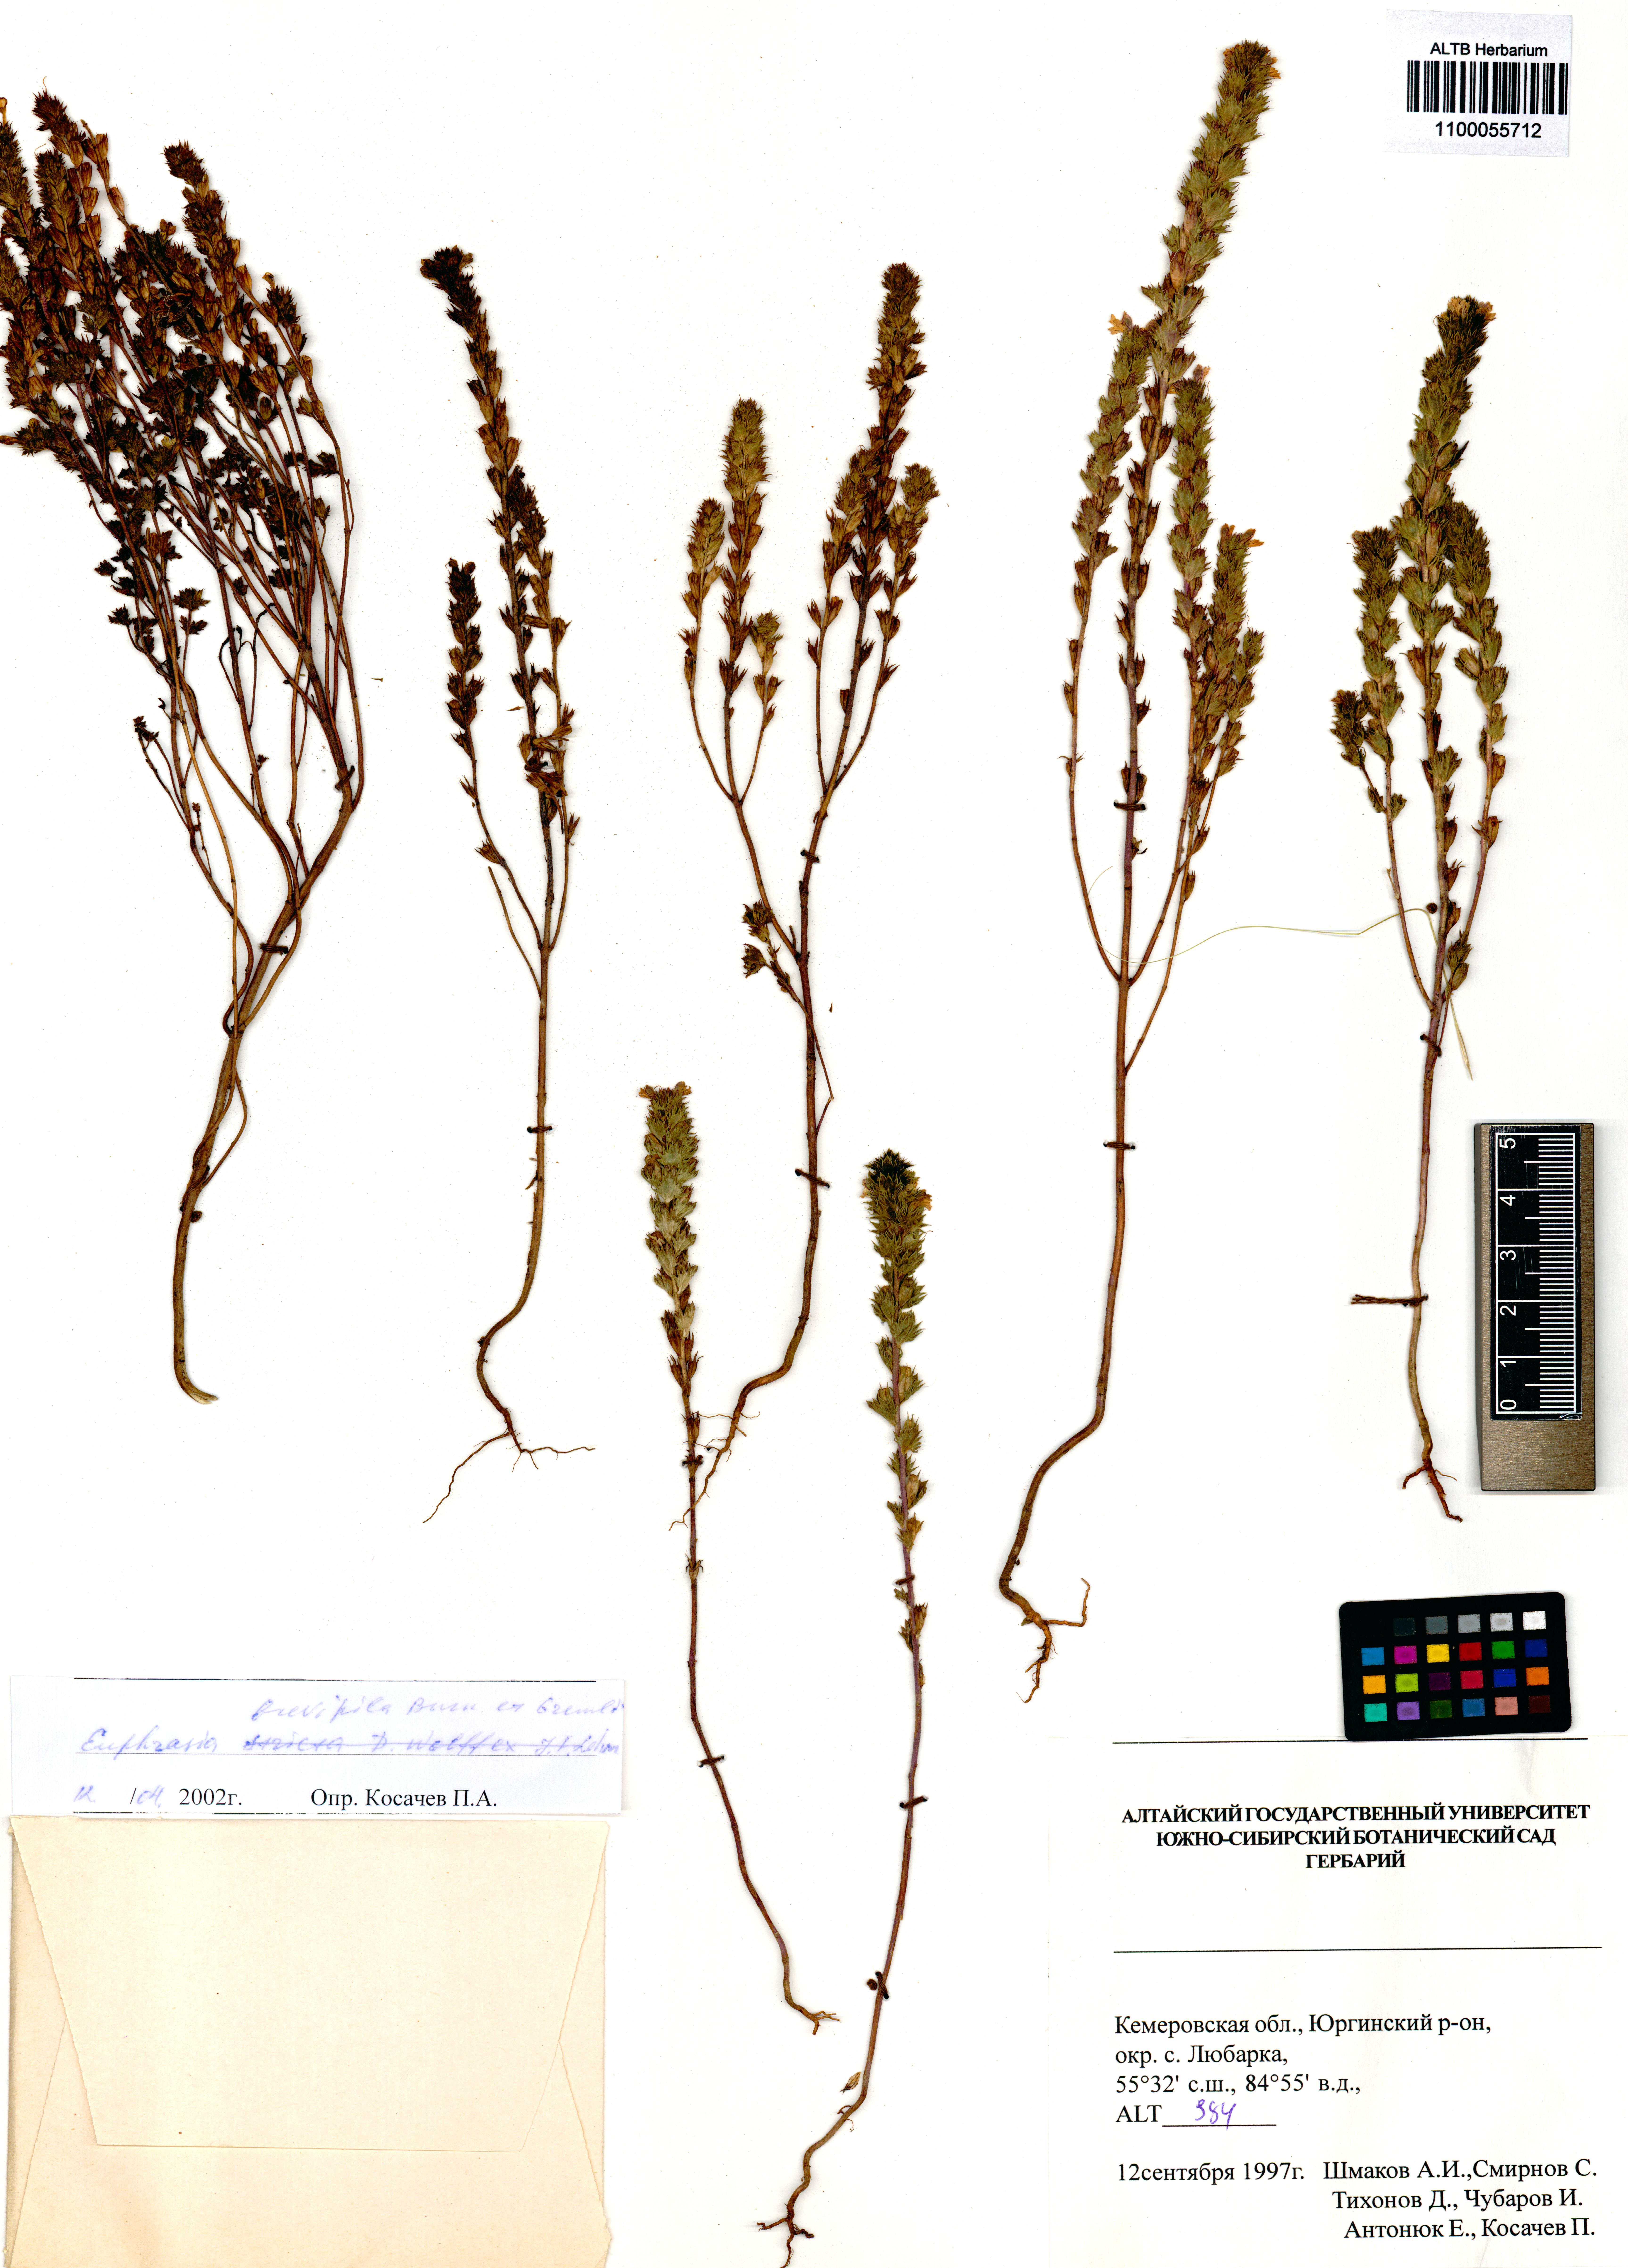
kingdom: Plantae
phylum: Tracheophyta
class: Magnoliopsida
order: Lamiales
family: Orobanchaceae
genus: Euphrasia
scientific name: Euphrasia vernalis
